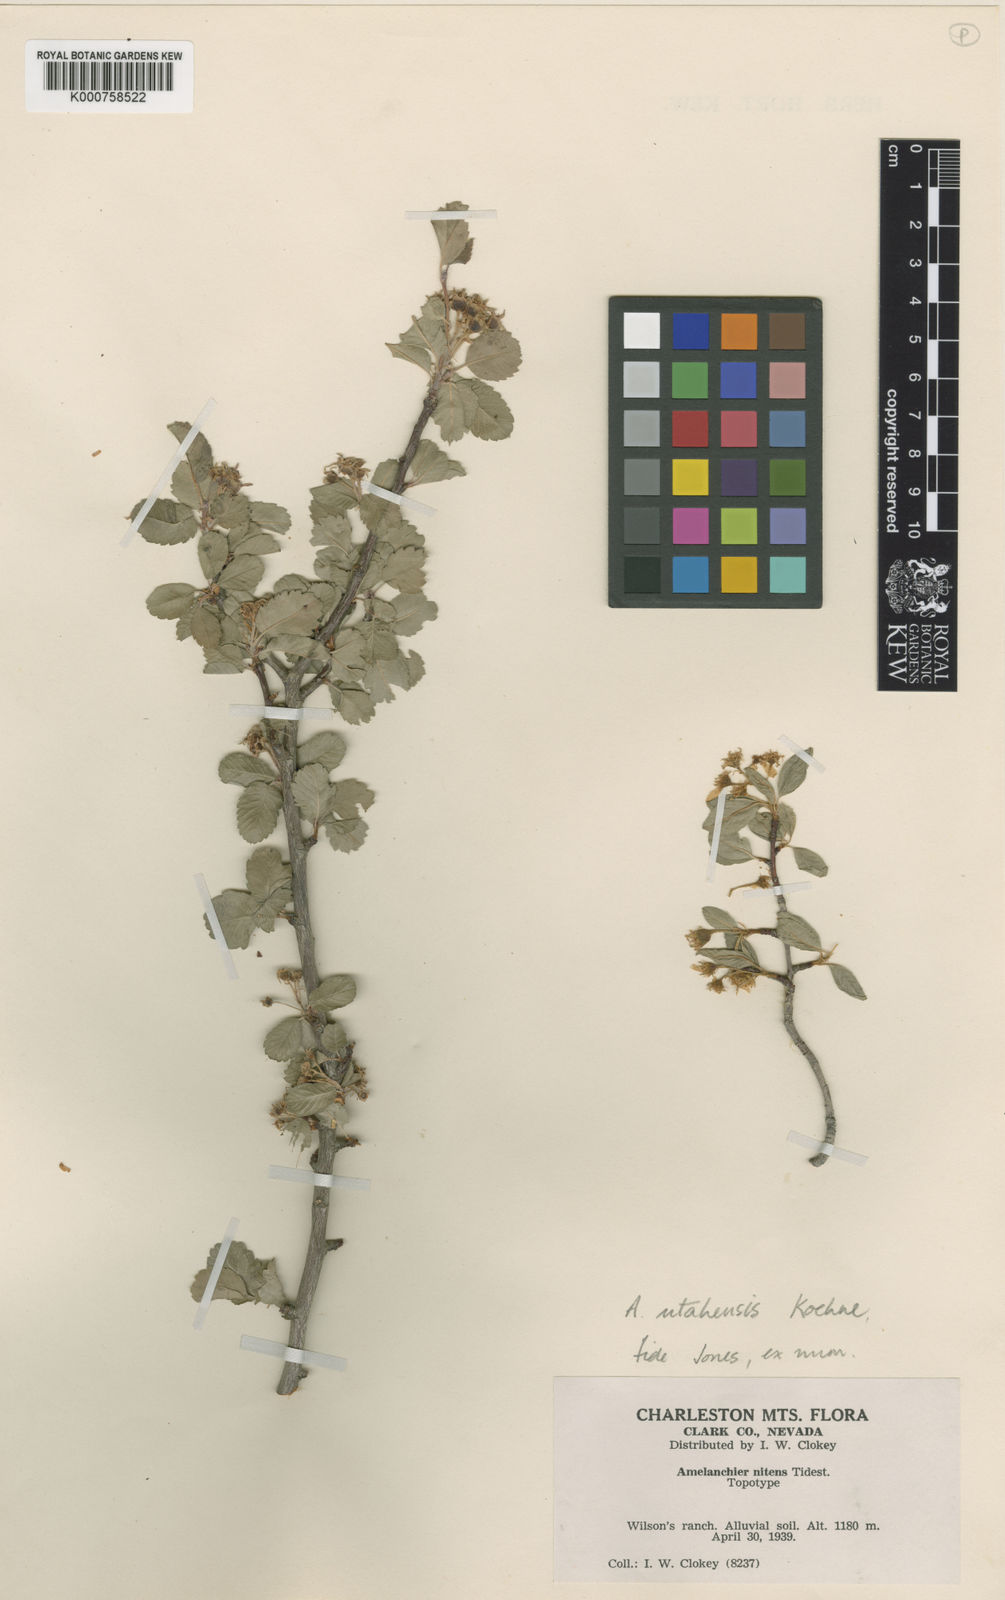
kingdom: Plantae
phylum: Tracheophyta
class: Magnoliopsida
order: Rosales
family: Rosaceae
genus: Amelanchier
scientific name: Amelanchier utahensis
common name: Utah serviceberry
